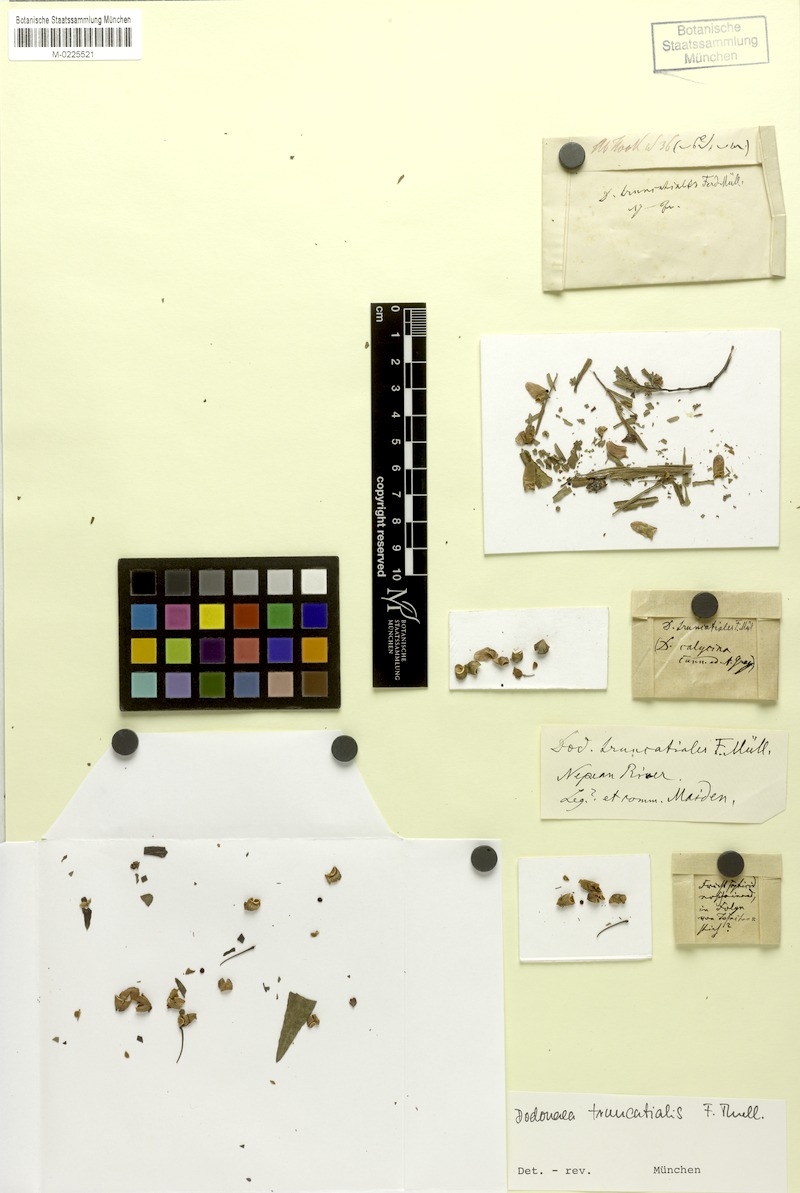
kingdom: Plantae
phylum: Tracheophyta
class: Magnoliopsida
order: Sapindales
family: Sapindaceae
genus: Dodonaea
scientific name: Dodonaea truncatialis
